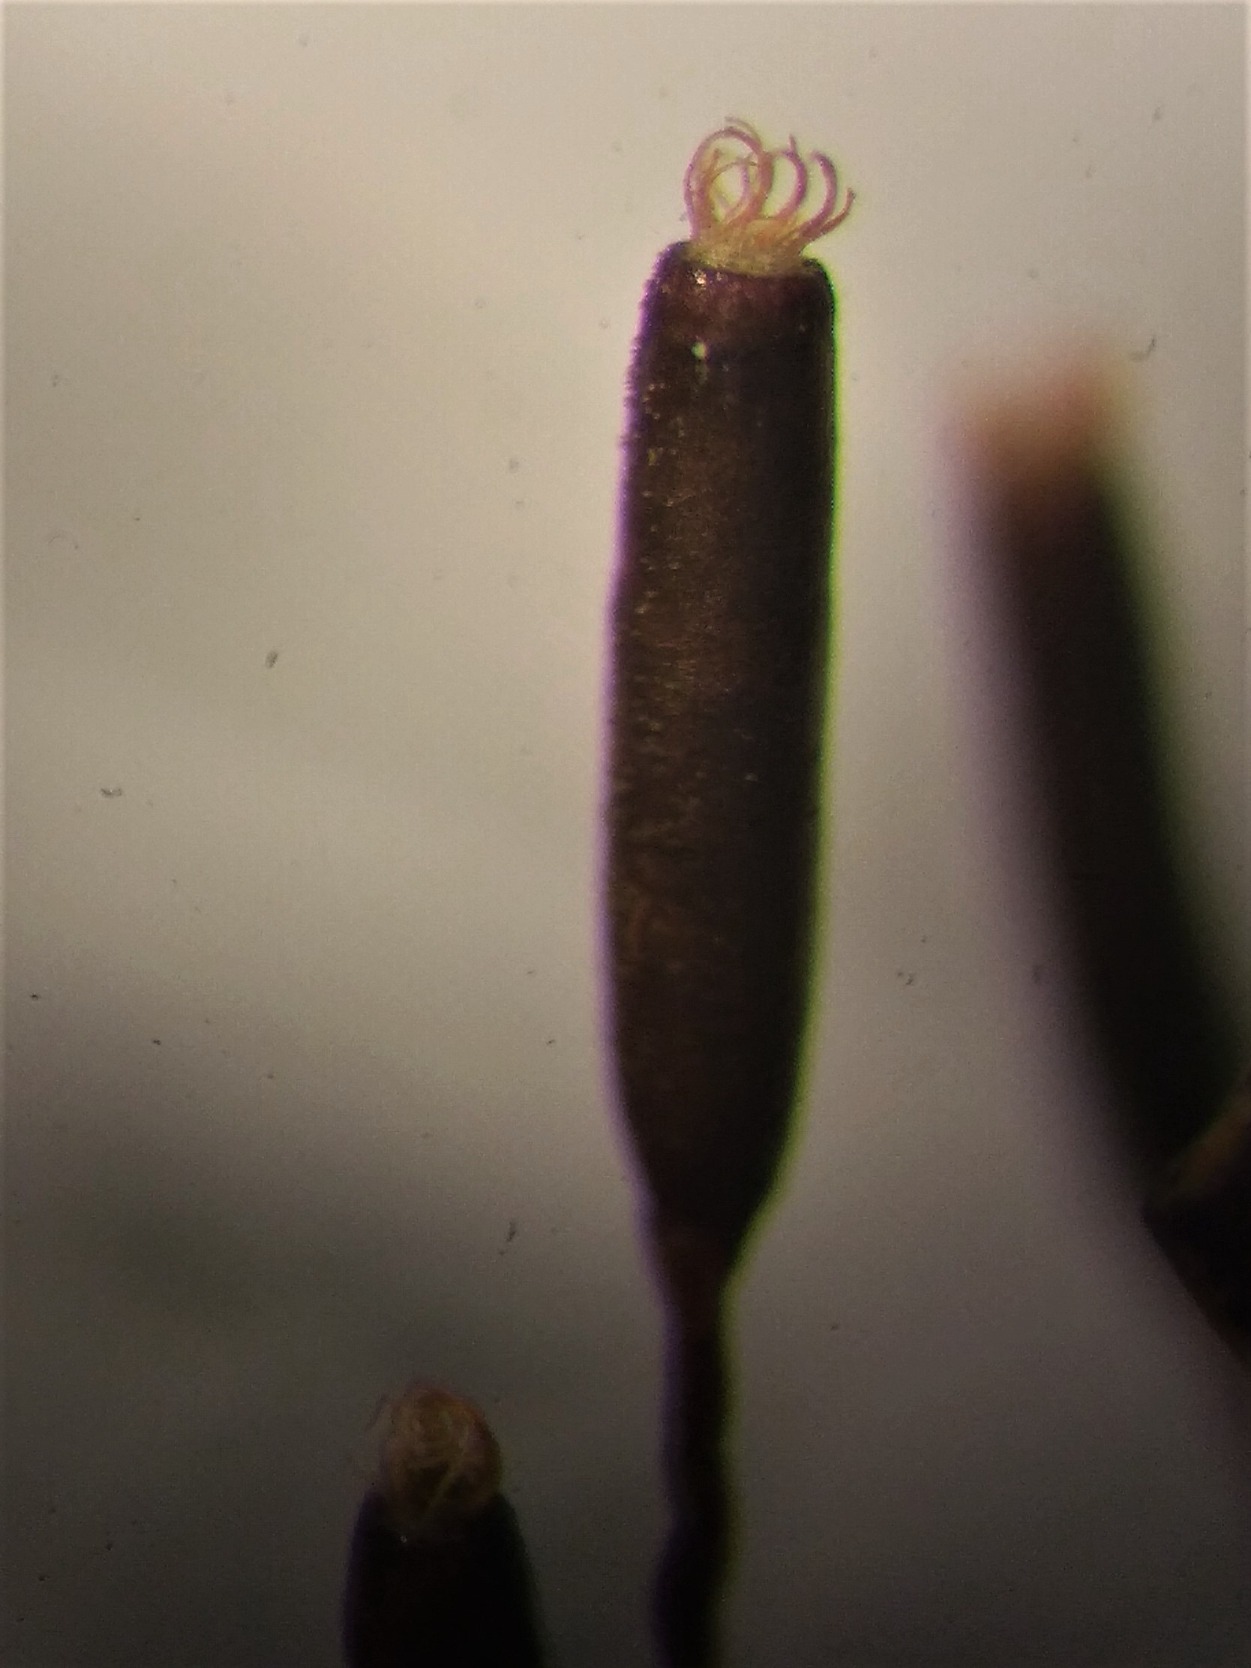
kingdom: Plantae
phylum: Bryophyta
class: Bryopsida
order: Pottiales
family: Pottiaceae
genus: Aloina
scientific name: Aloina ambigua
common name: Krog-tøffelmos
